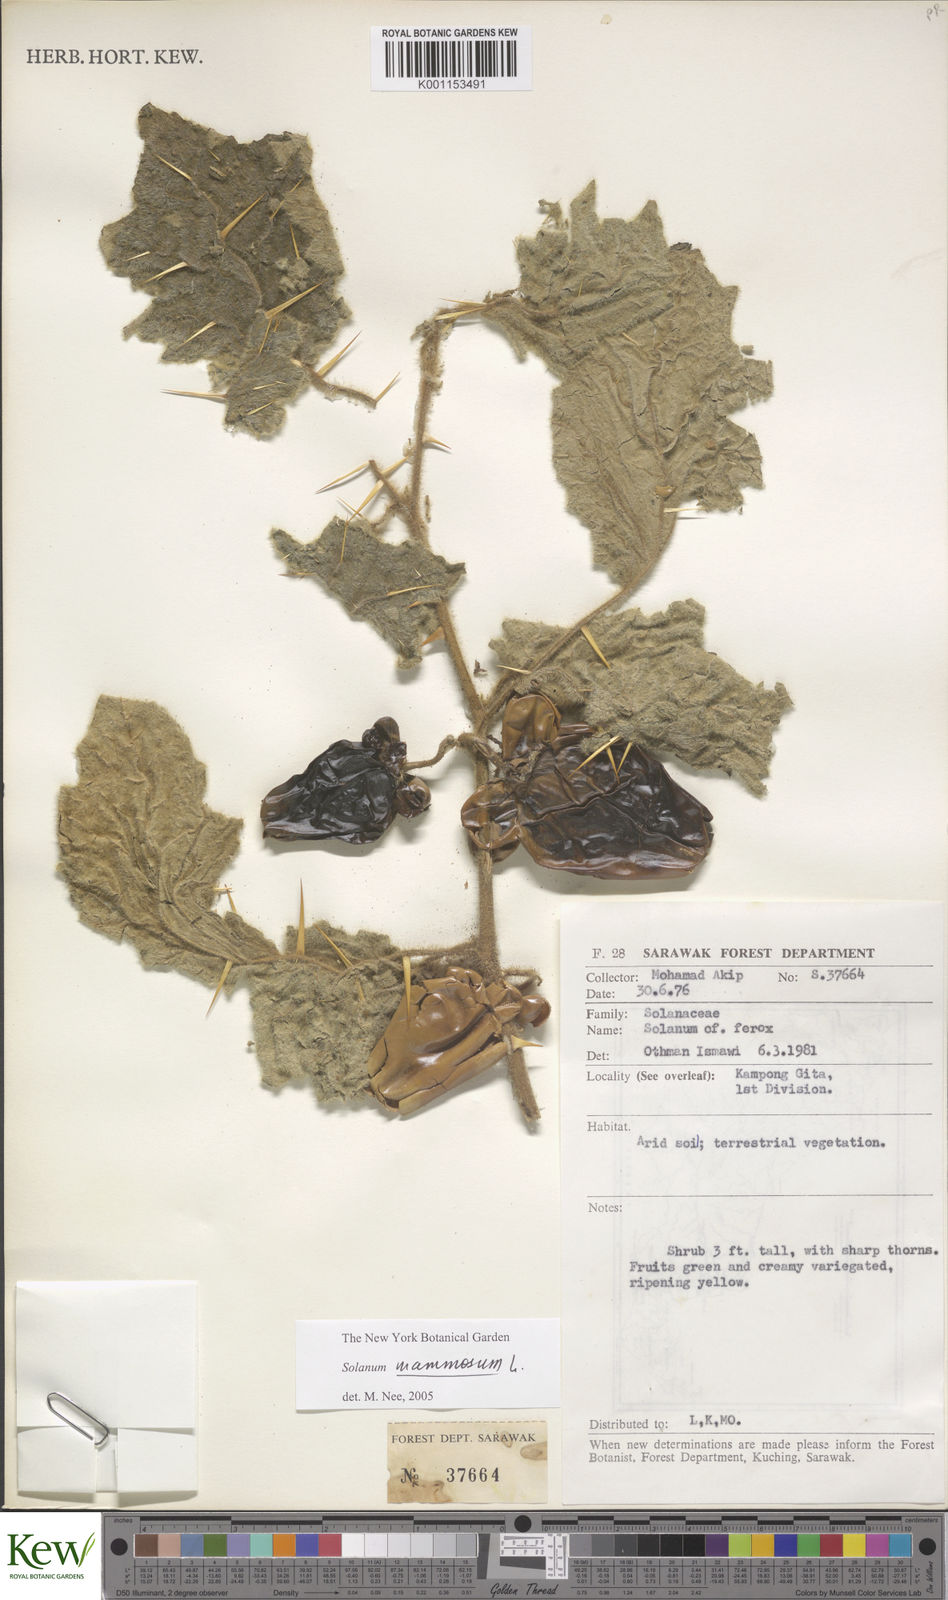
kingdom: Plantae
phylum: Tracheophyta
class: Magnoliopsida
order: Solanales
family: Solanaceae
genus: Solanum
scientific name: Solanum mammosum
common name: Nipple fruit
